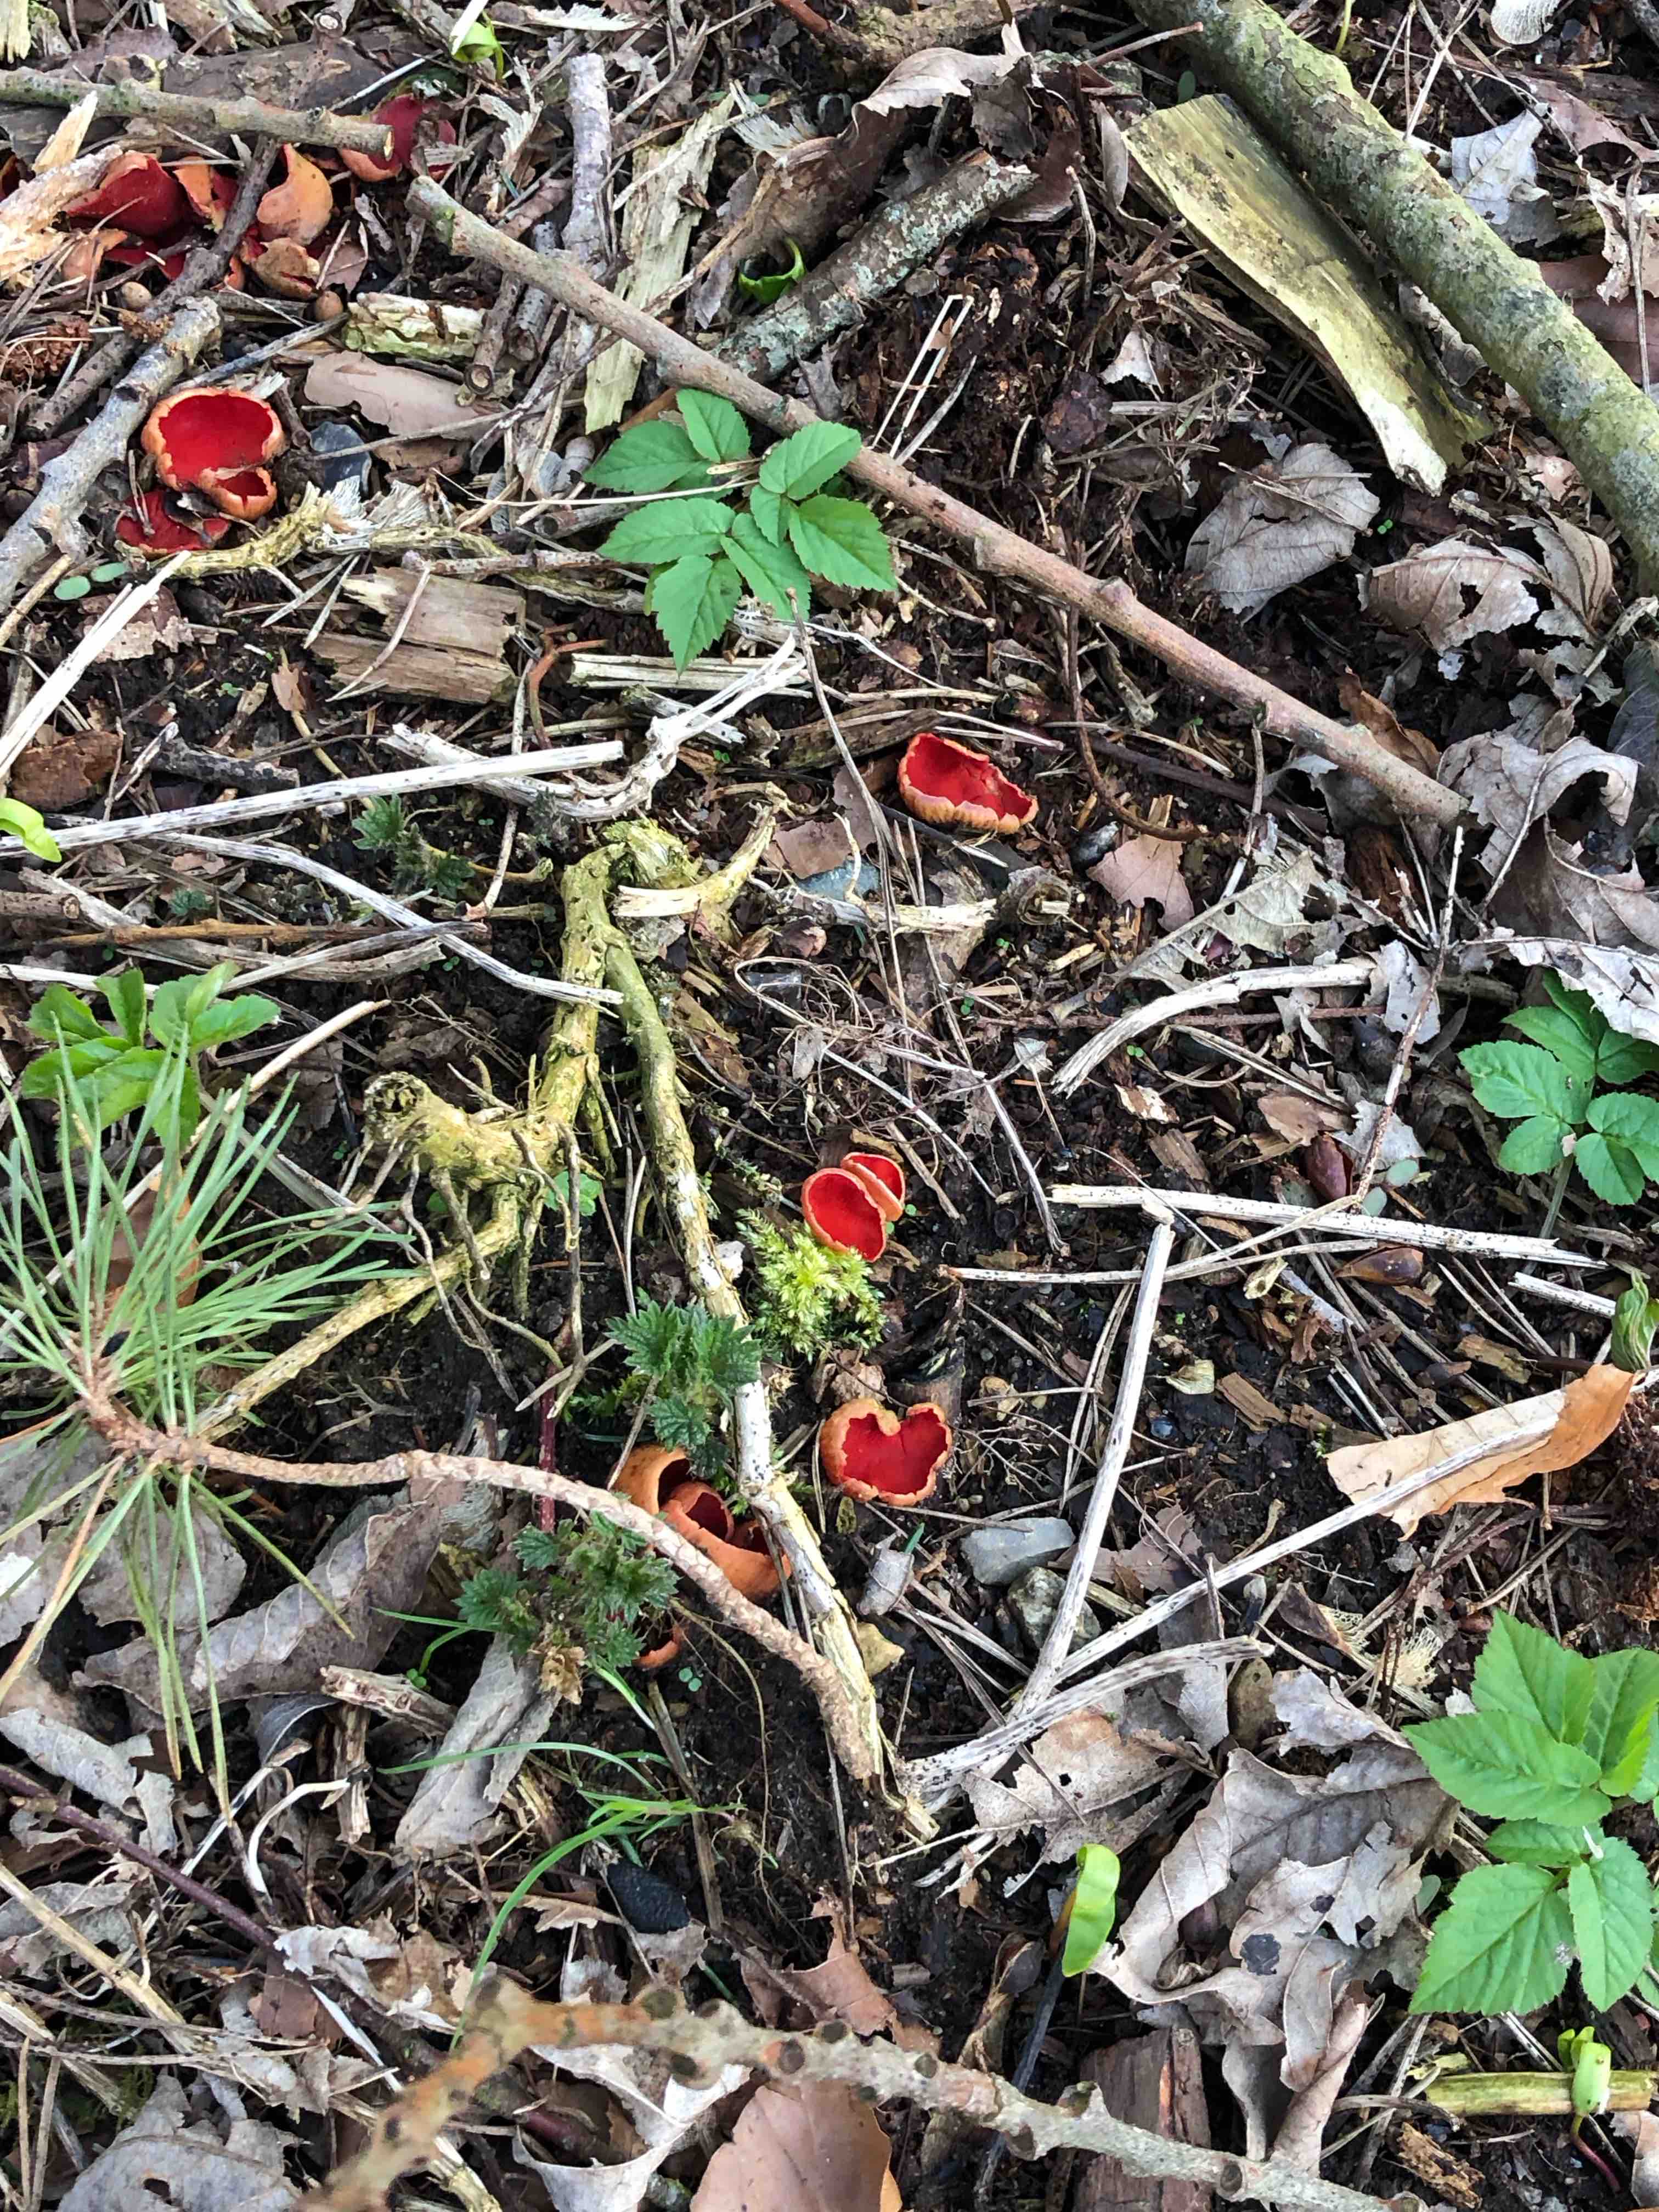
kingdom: Fungi
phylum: Ascomycota
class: Pezizomycetes
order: Pezizales
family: Sarcoscyphaceae
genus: Sarcoscypha
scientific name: Sarcoscypha austriaca
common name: krølhåret pragtbæger
